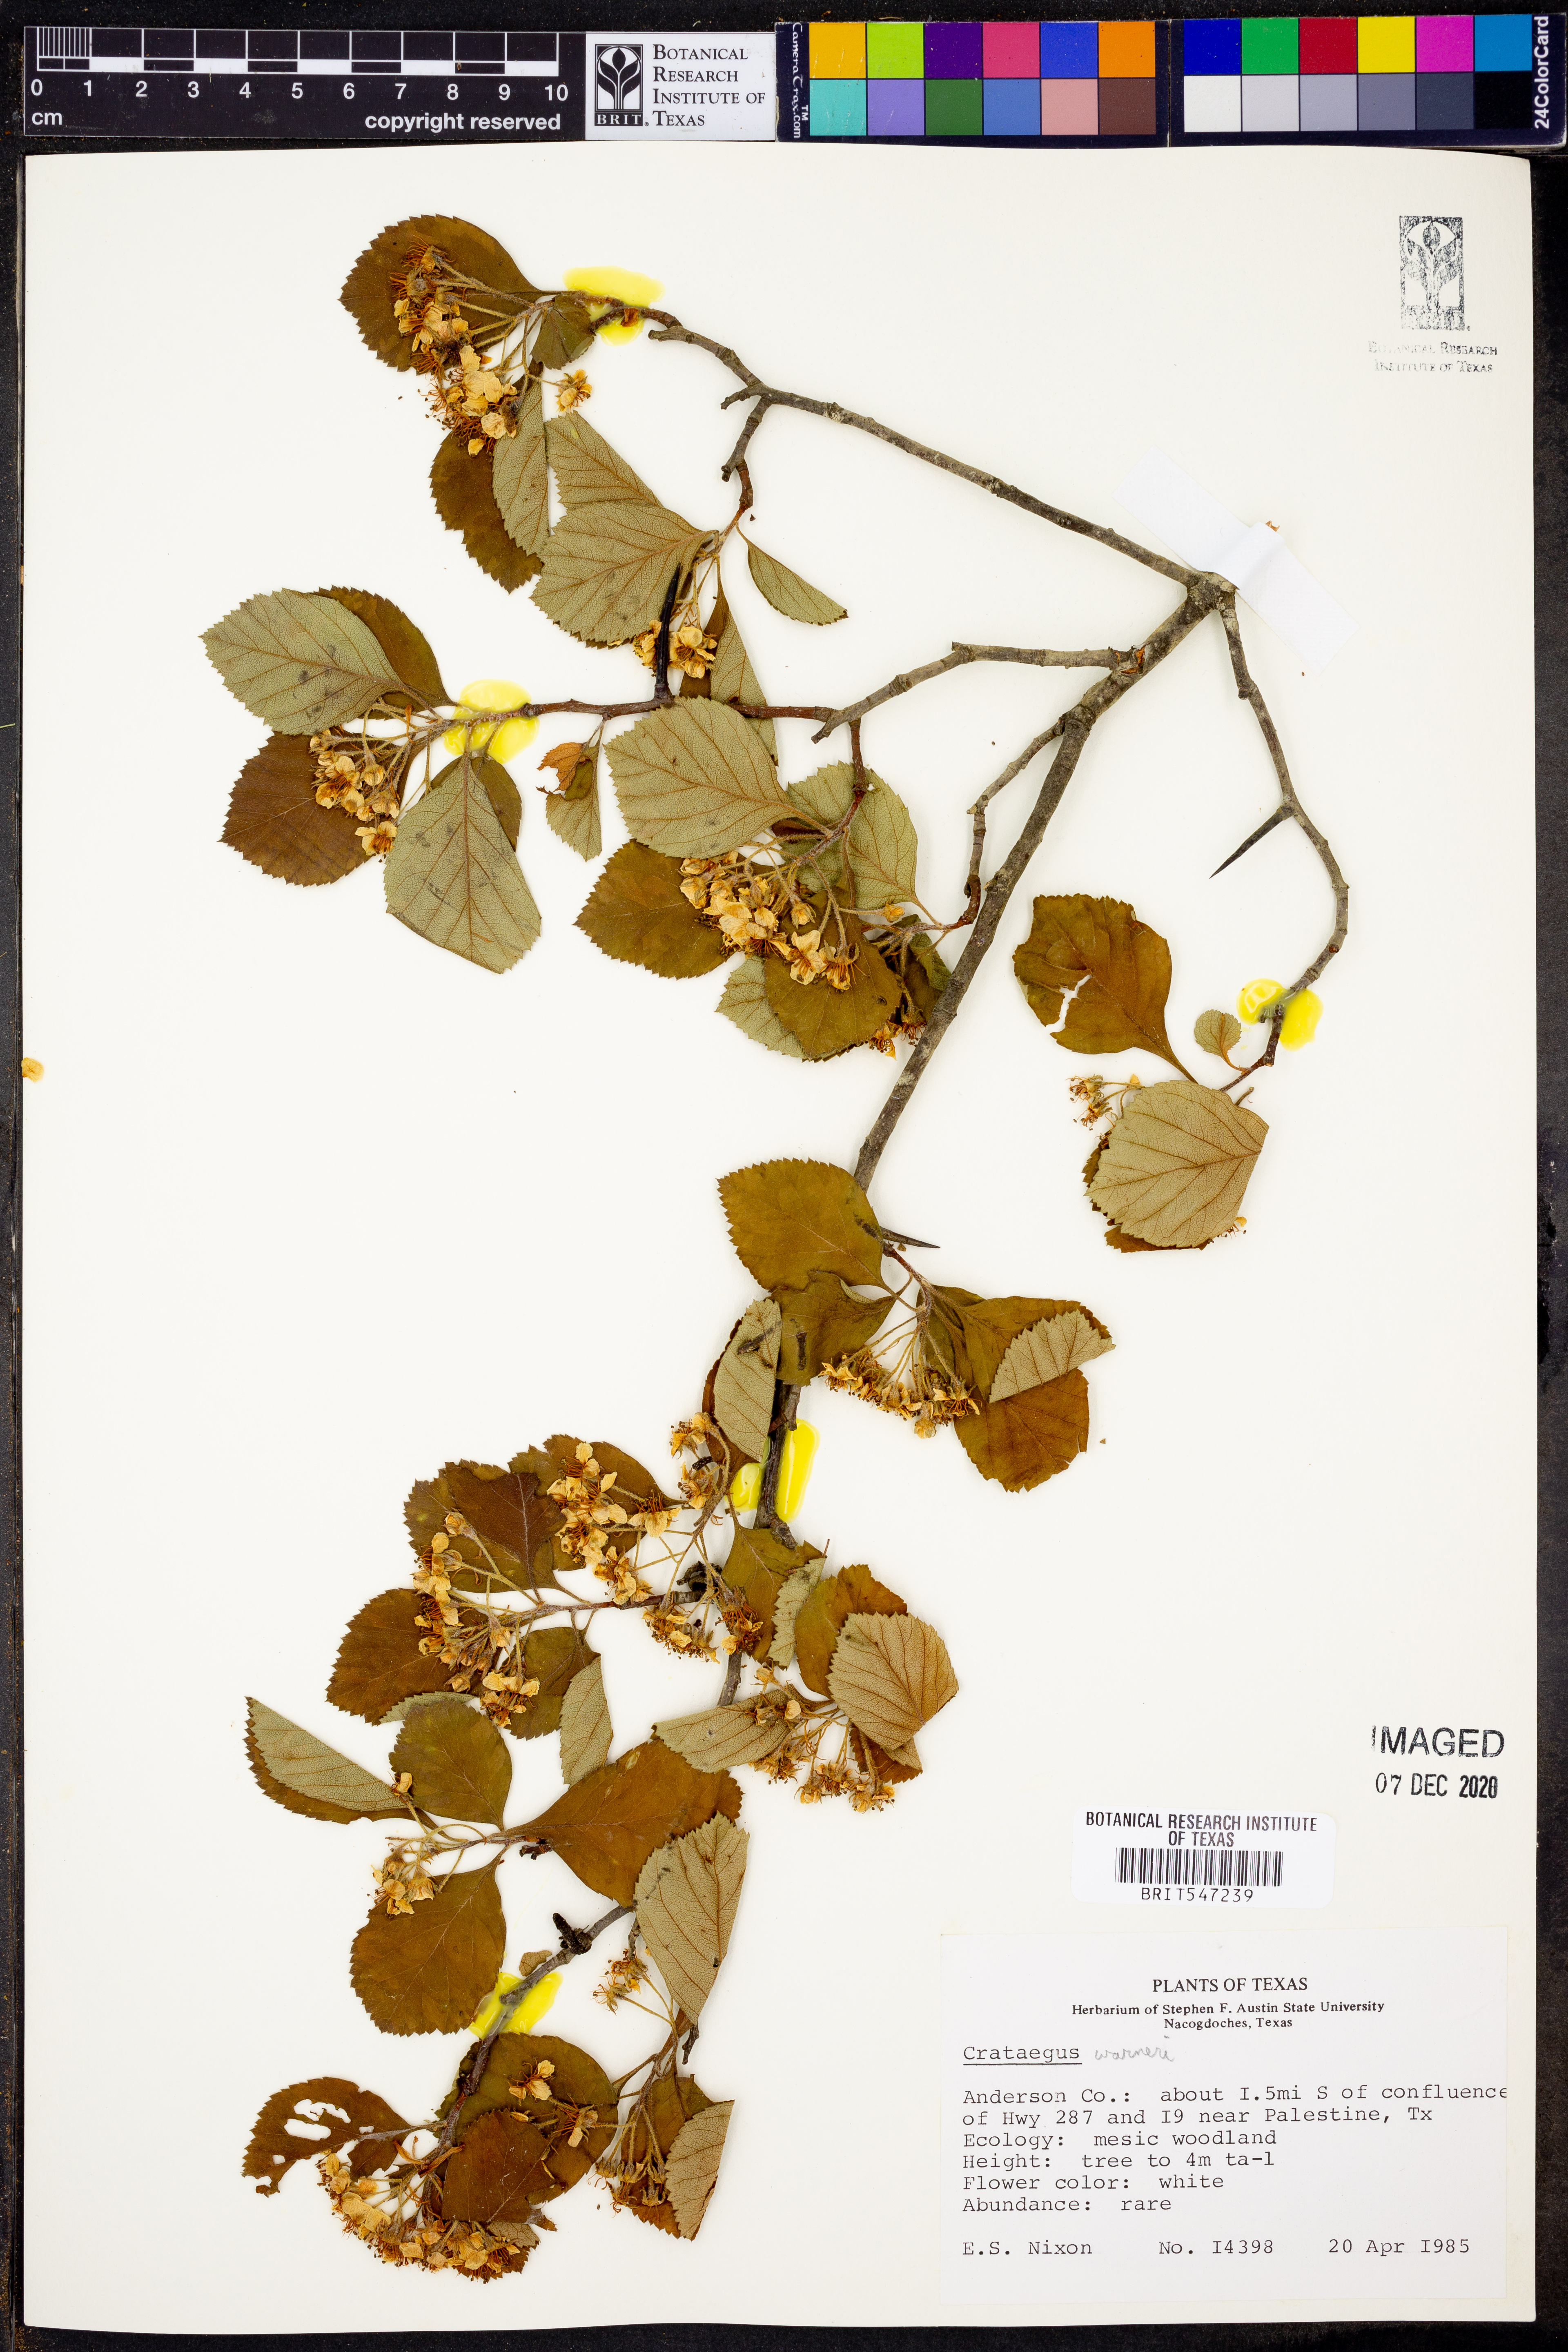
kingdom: Plantae
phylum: Tracheophyta
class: Magnoliopsida
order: Rosales
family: Rosaceae
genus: Crataegus
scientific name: Crataegus warneri
